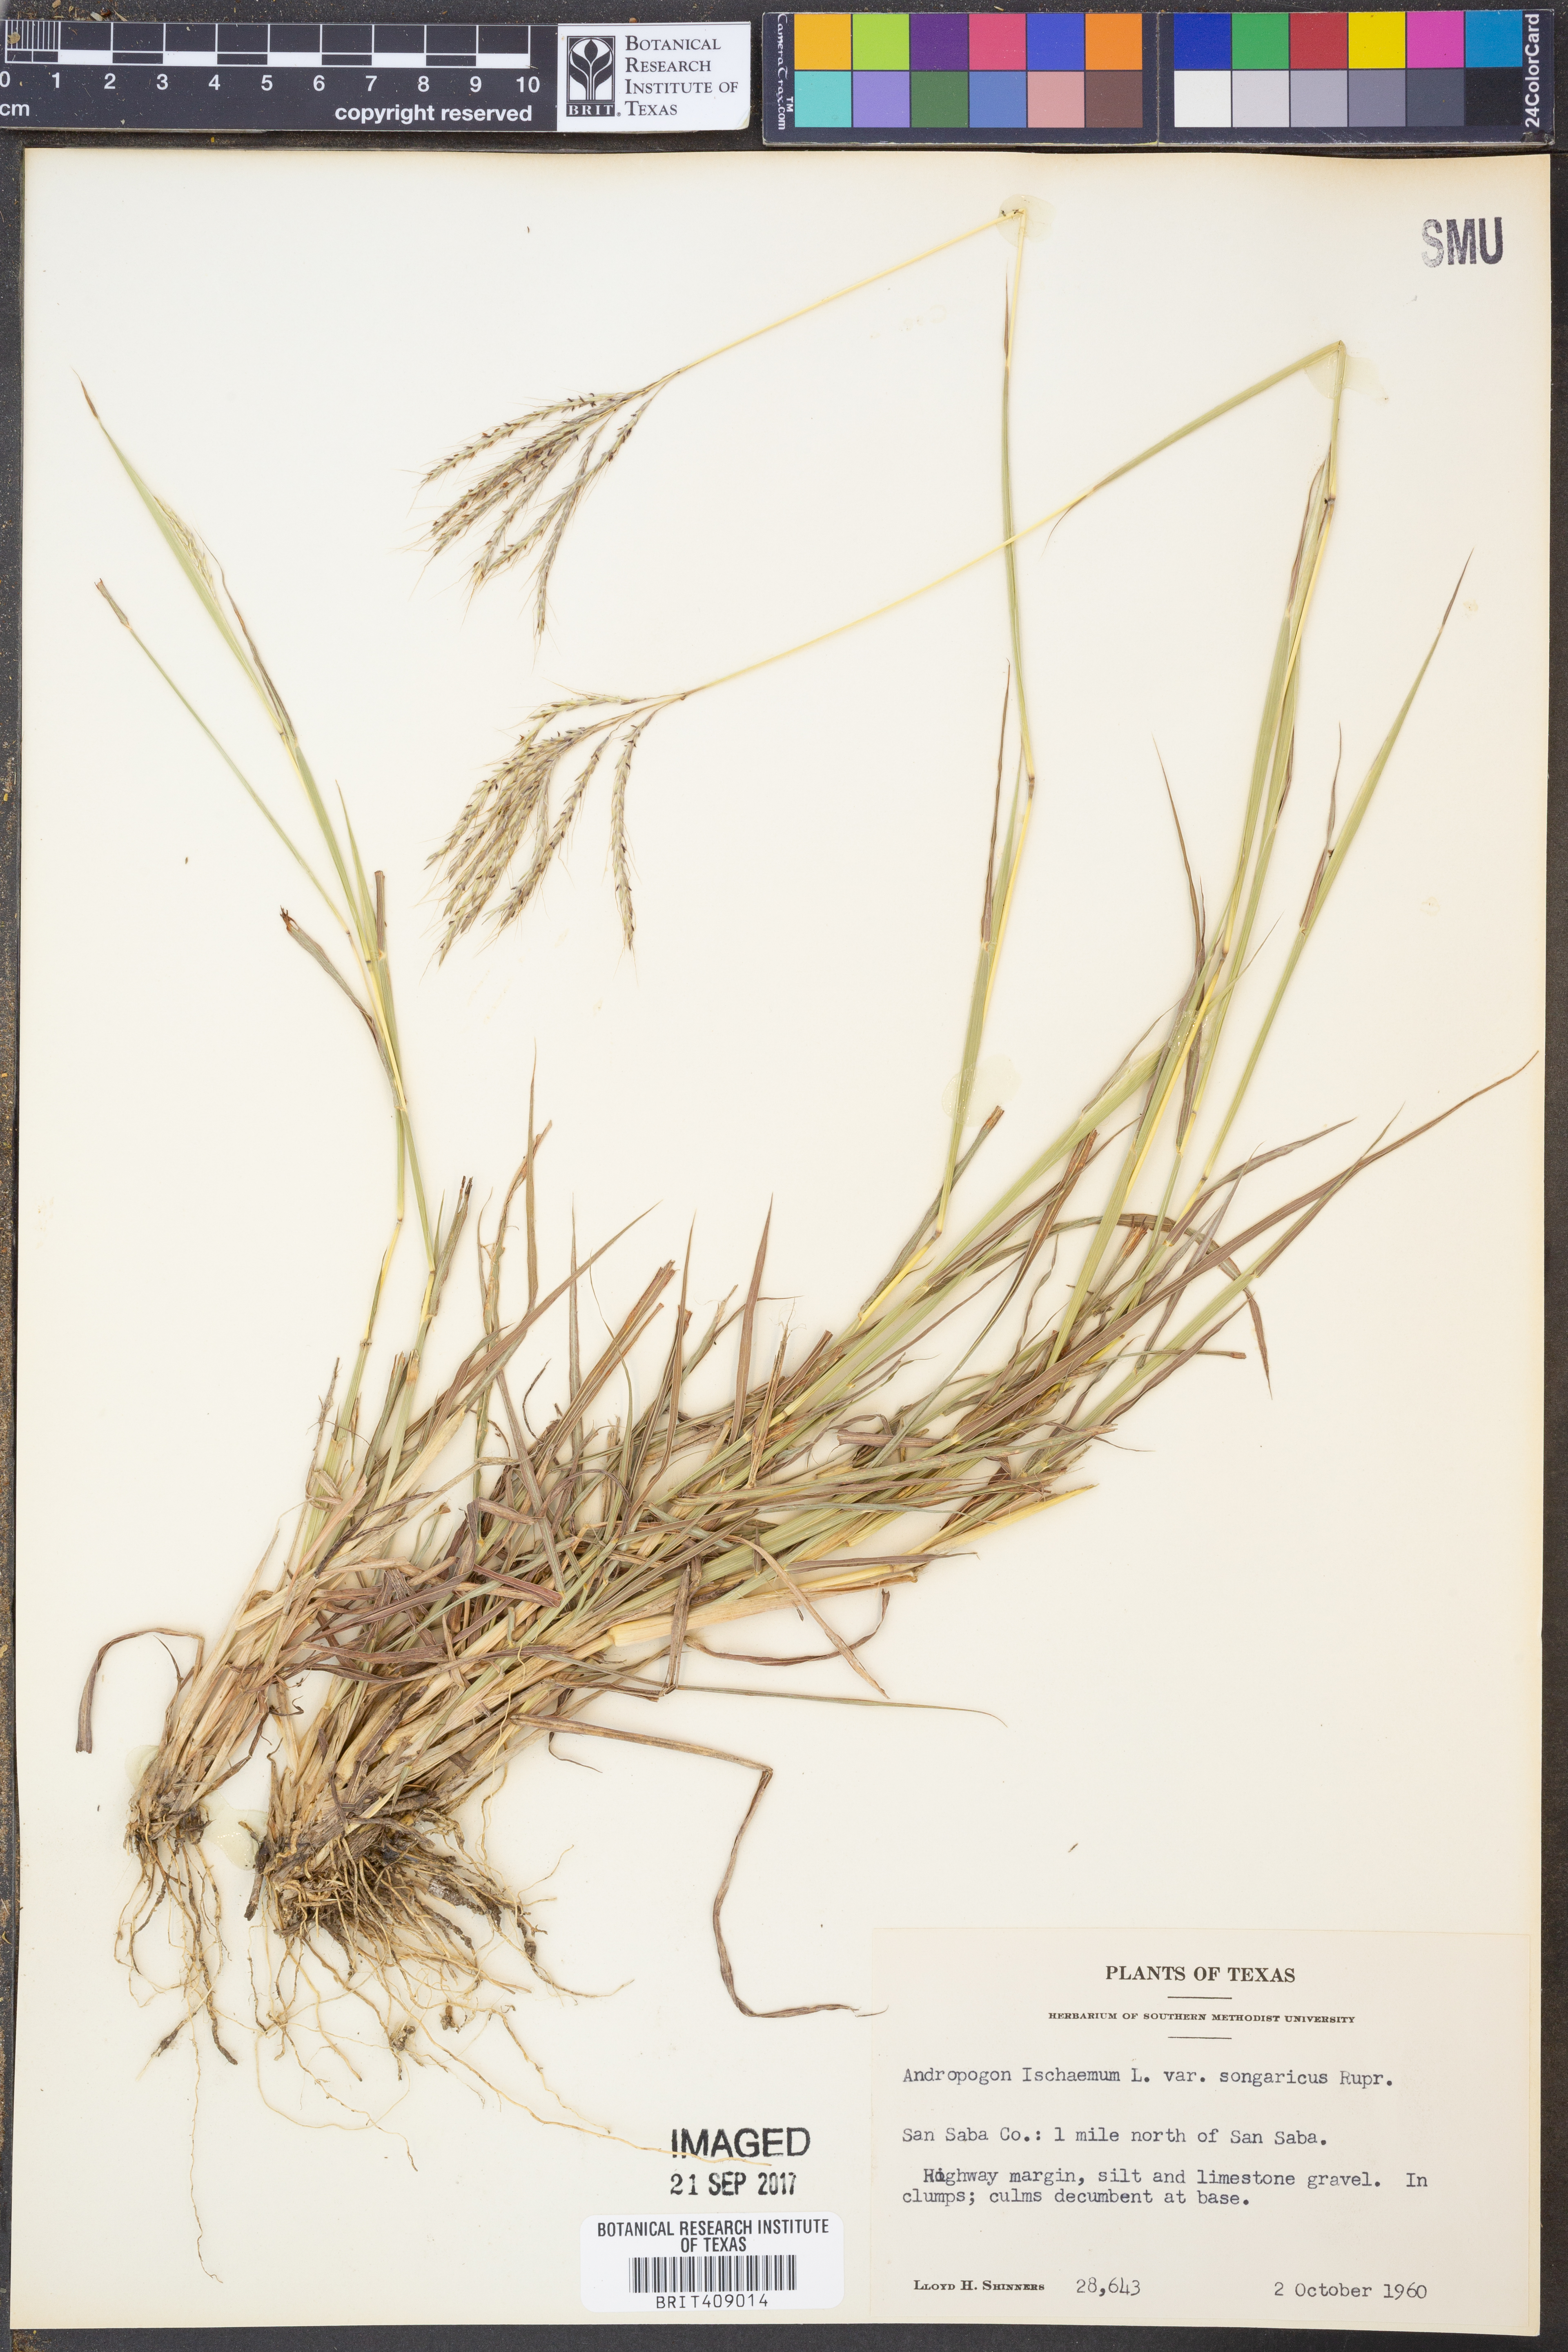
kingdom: Plantae
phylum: Tracheophyta
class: Liliopsida
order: Poales
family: Poaceae
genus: Bothriochloa
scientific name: Bothriochloa ischaemum
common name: Yellow bluestem
